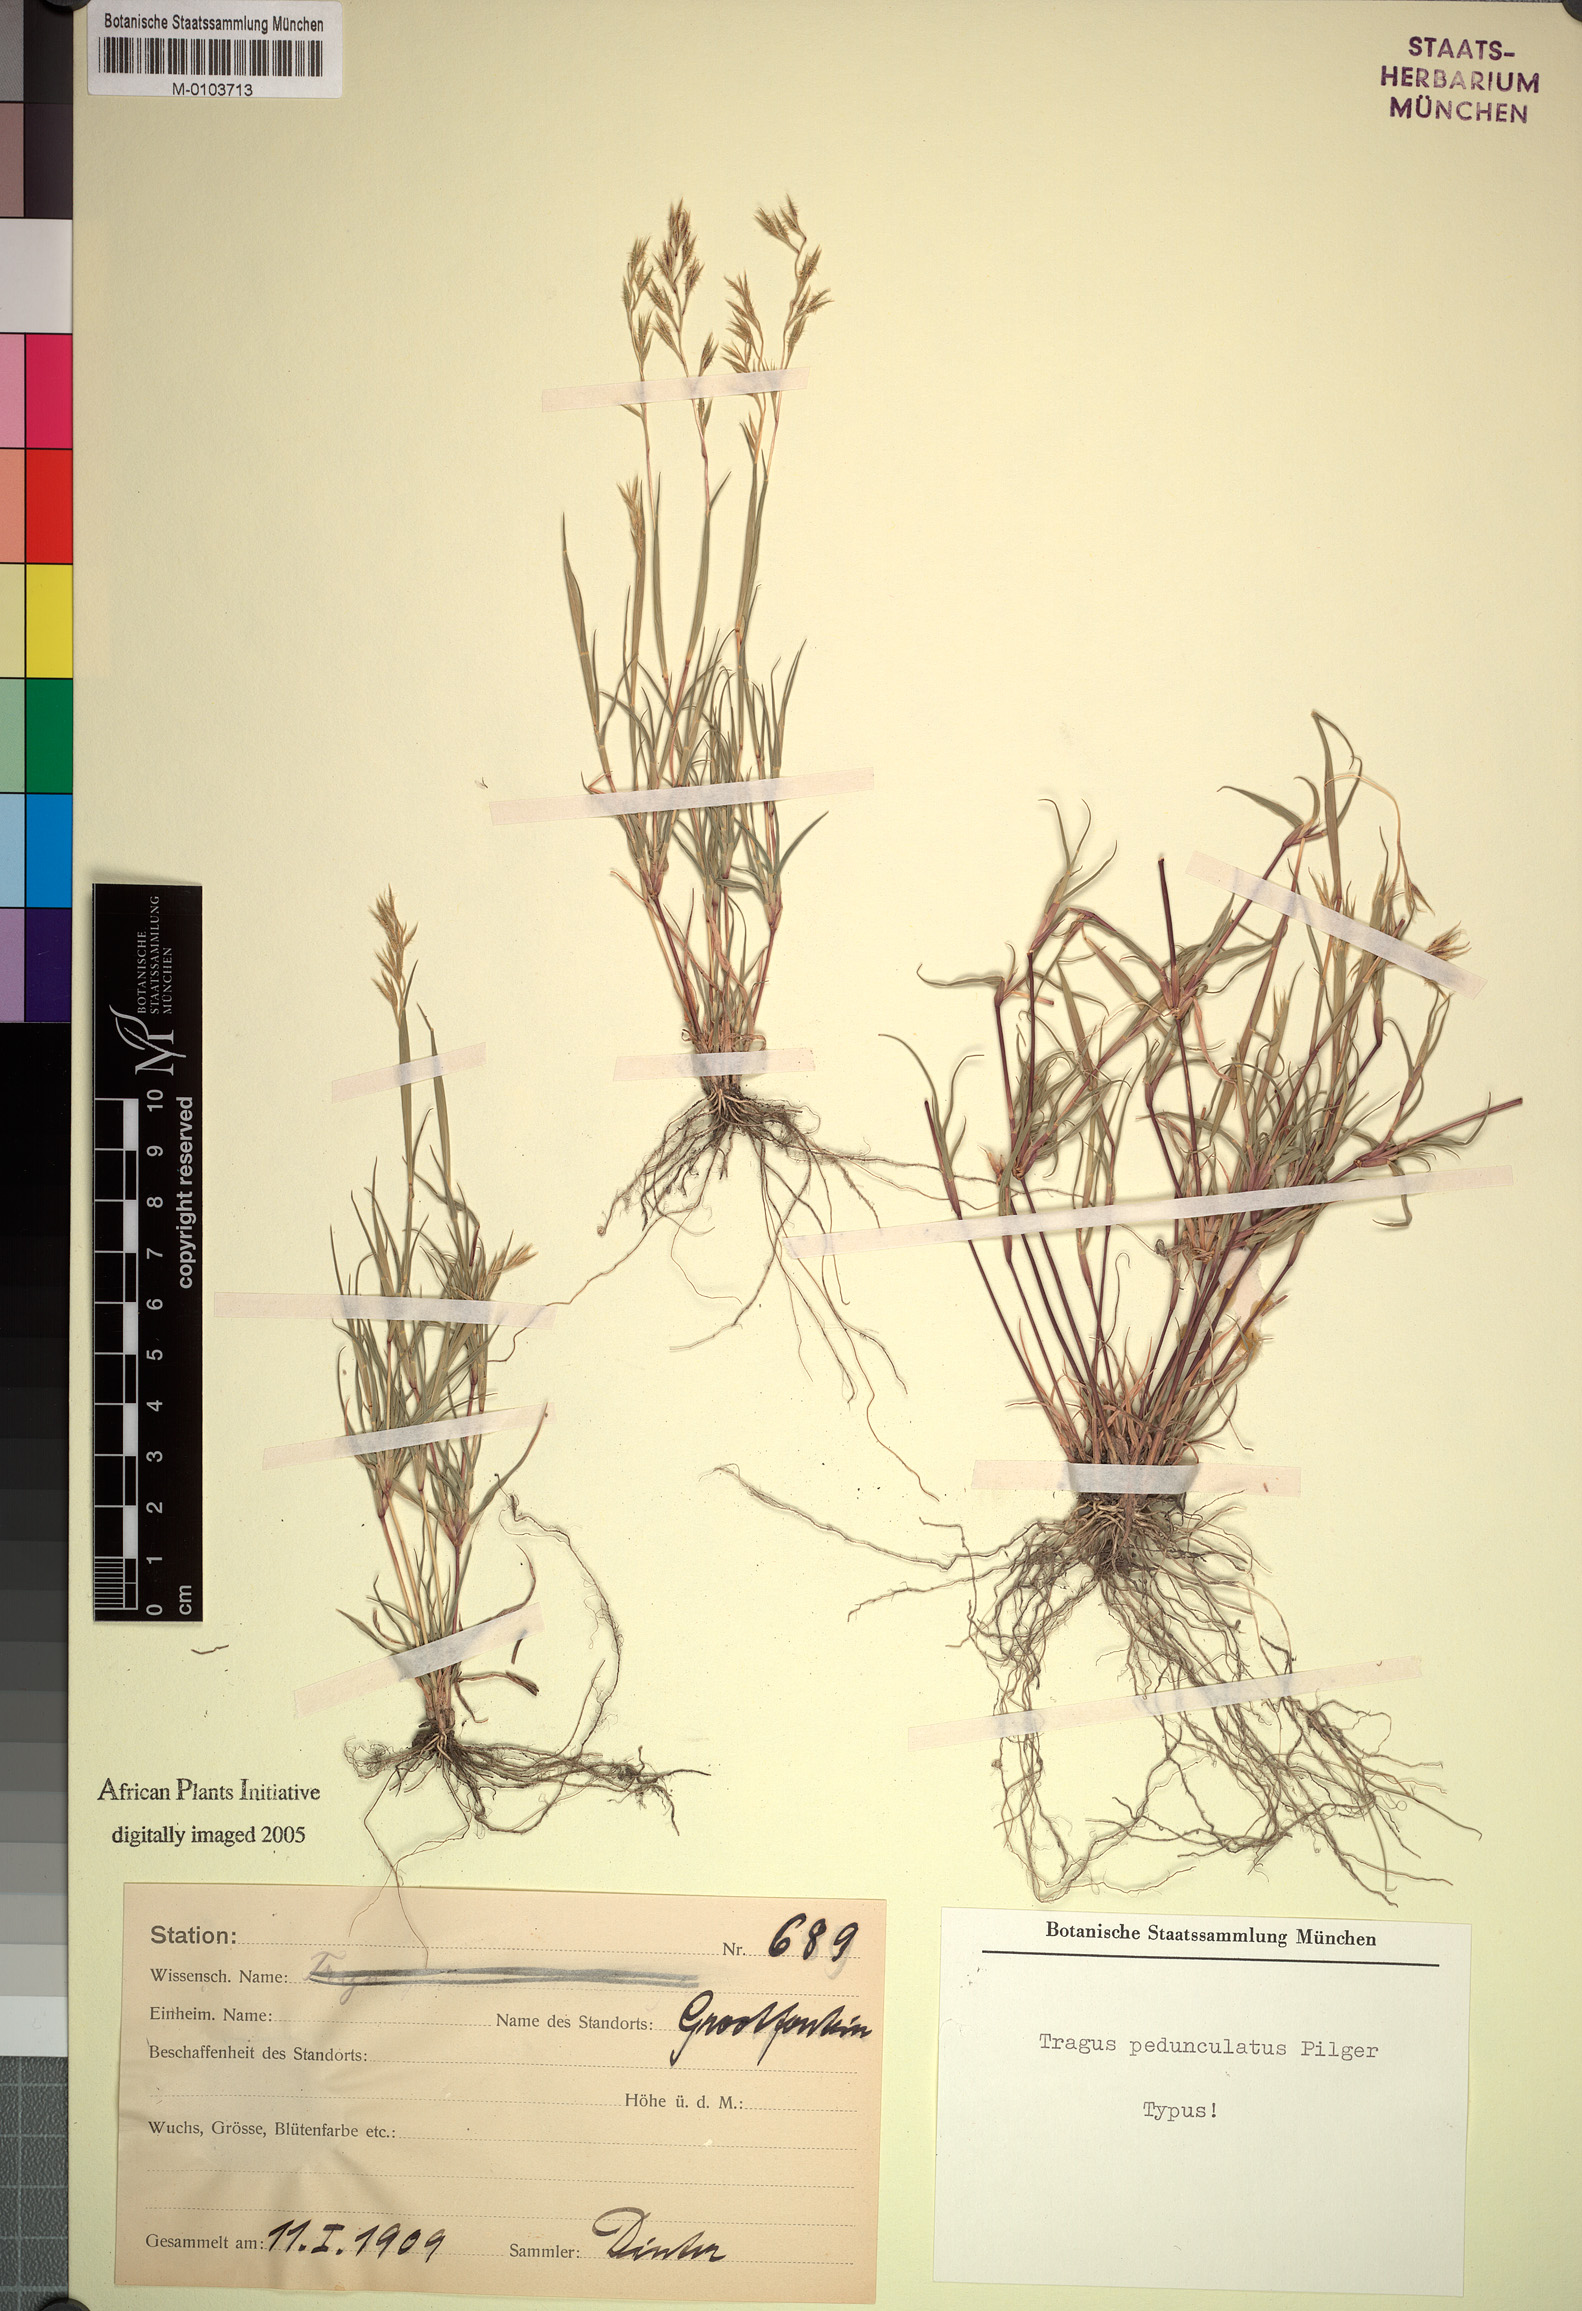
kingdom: Plantae
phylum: Tracheophyta
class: Liliopsida
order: Poales
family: Poaceae
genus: Orthacanthus
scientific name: Orthacanthus pedunculatus
